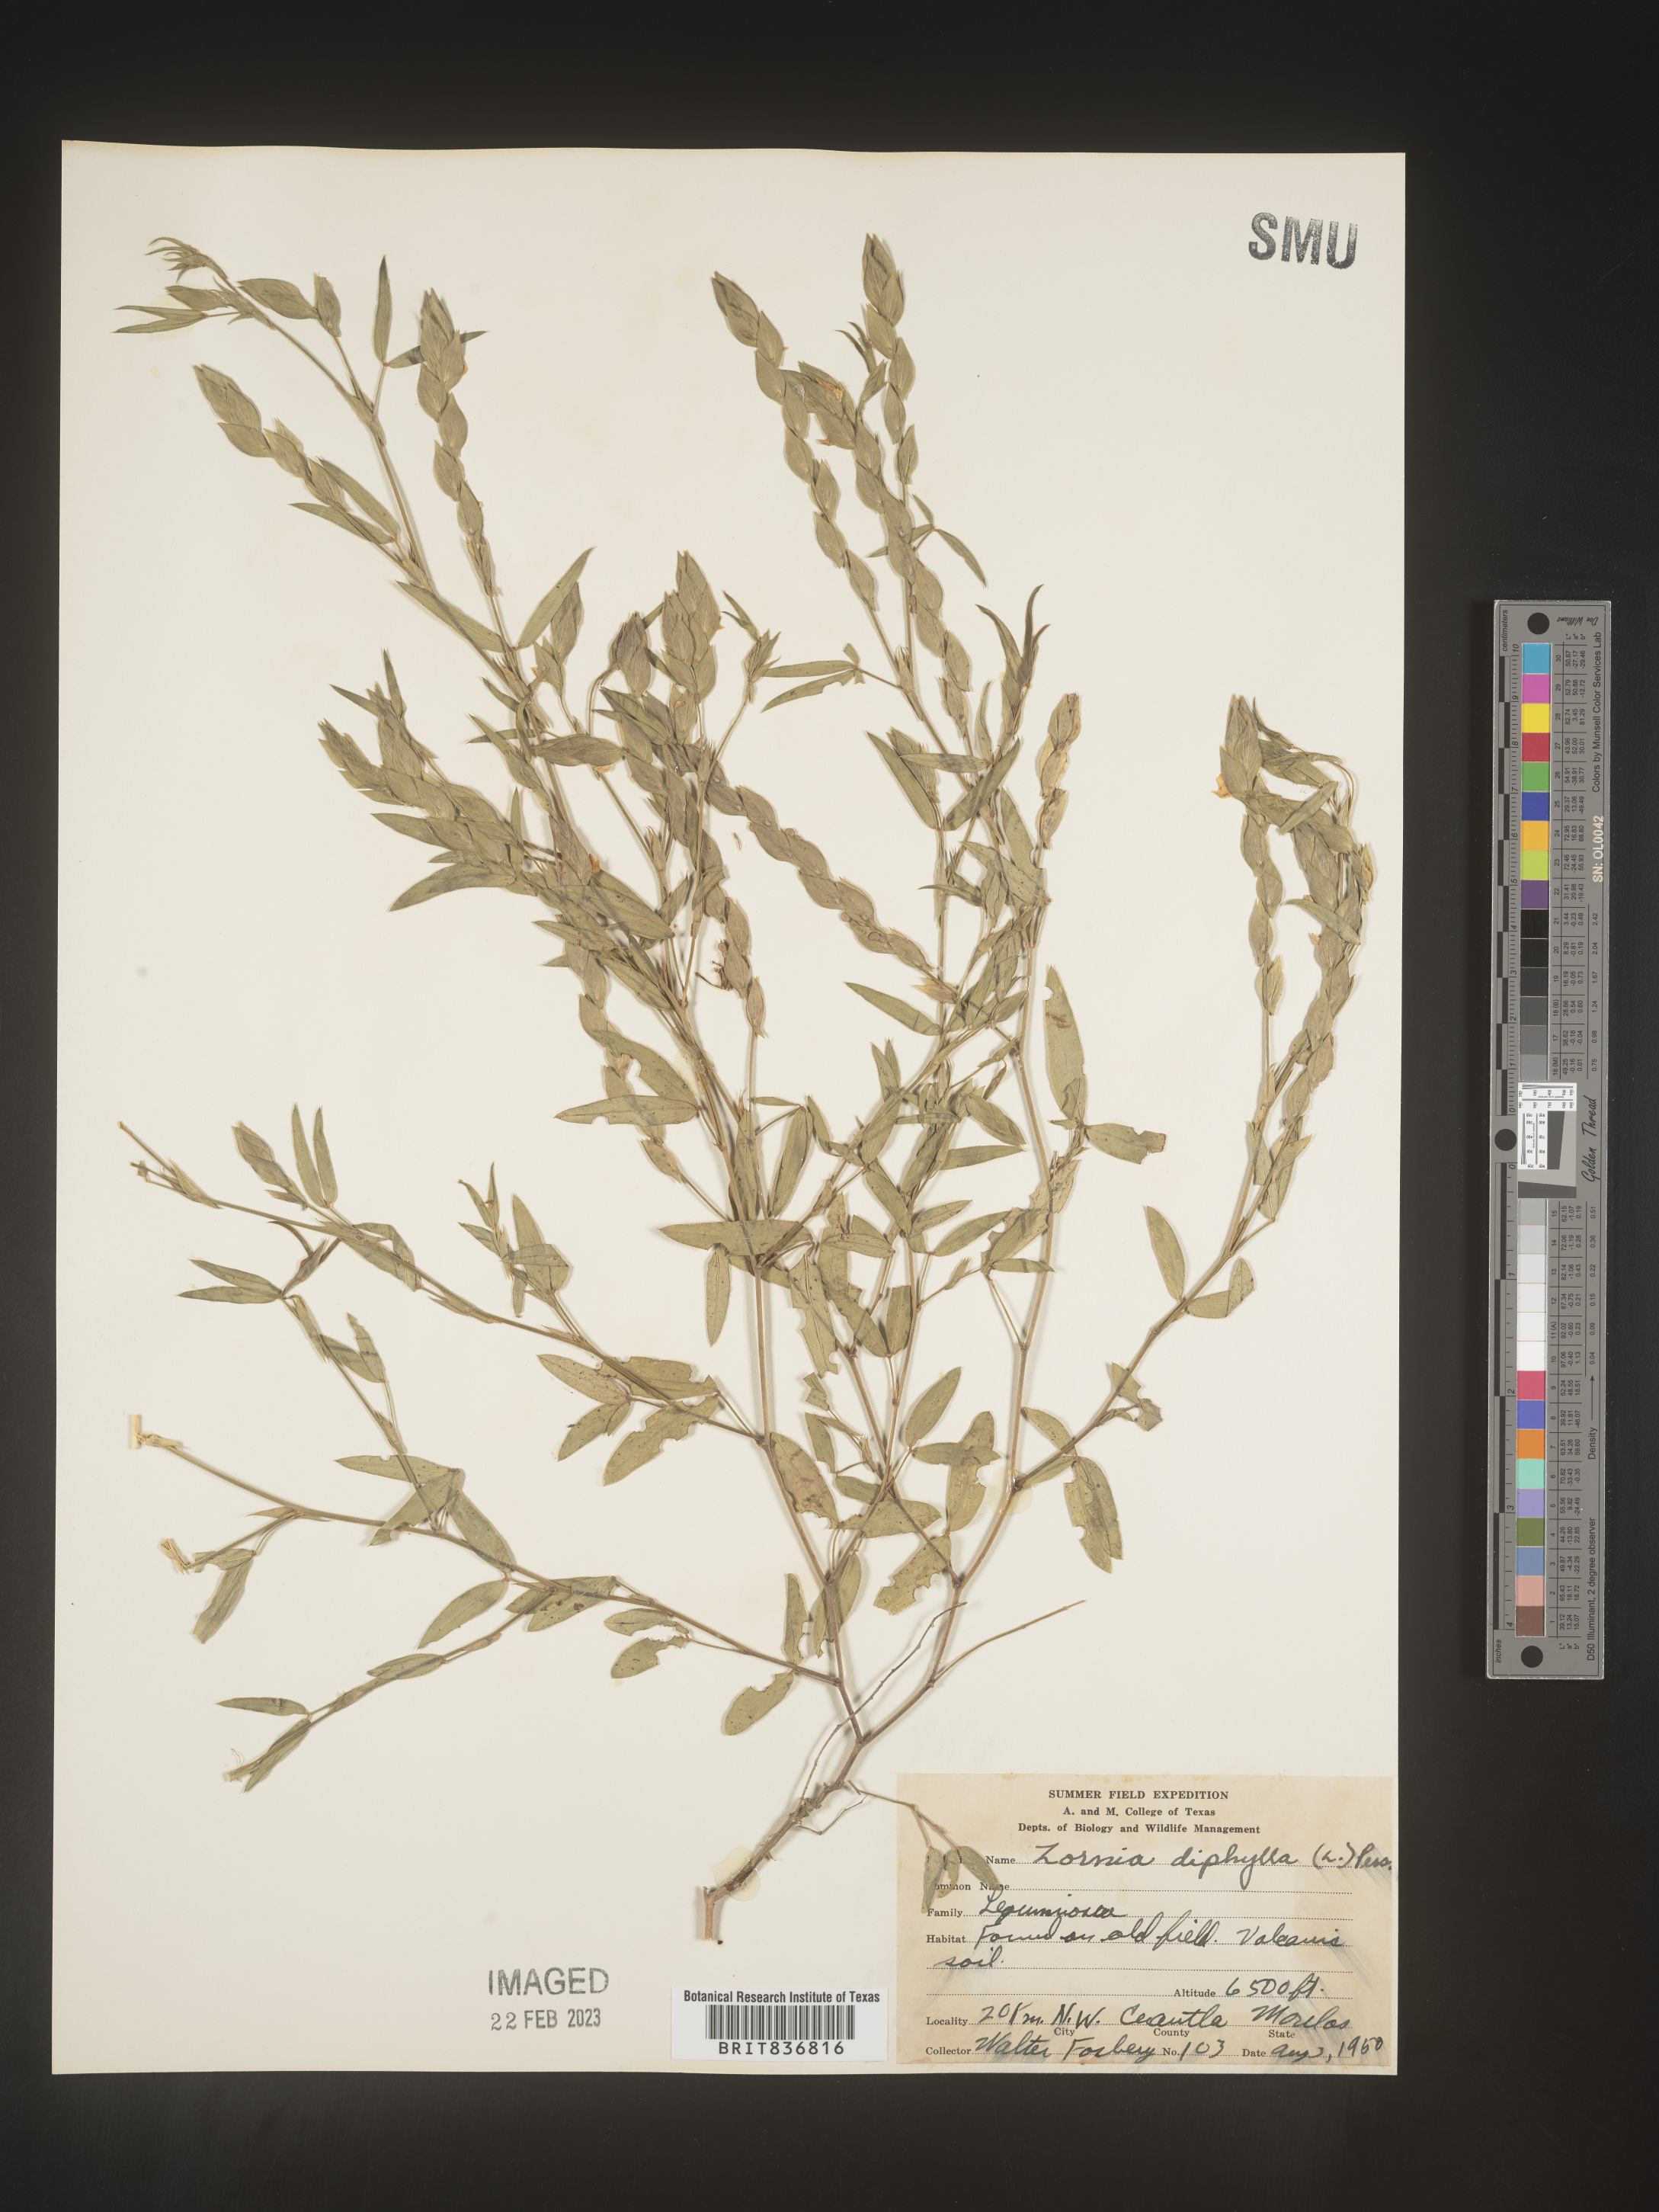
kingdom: Plantae
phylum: Tracheophyta
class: Magnoliopsida
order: Fabales
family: Fabaceae
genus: Zornia
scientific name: Zornia
